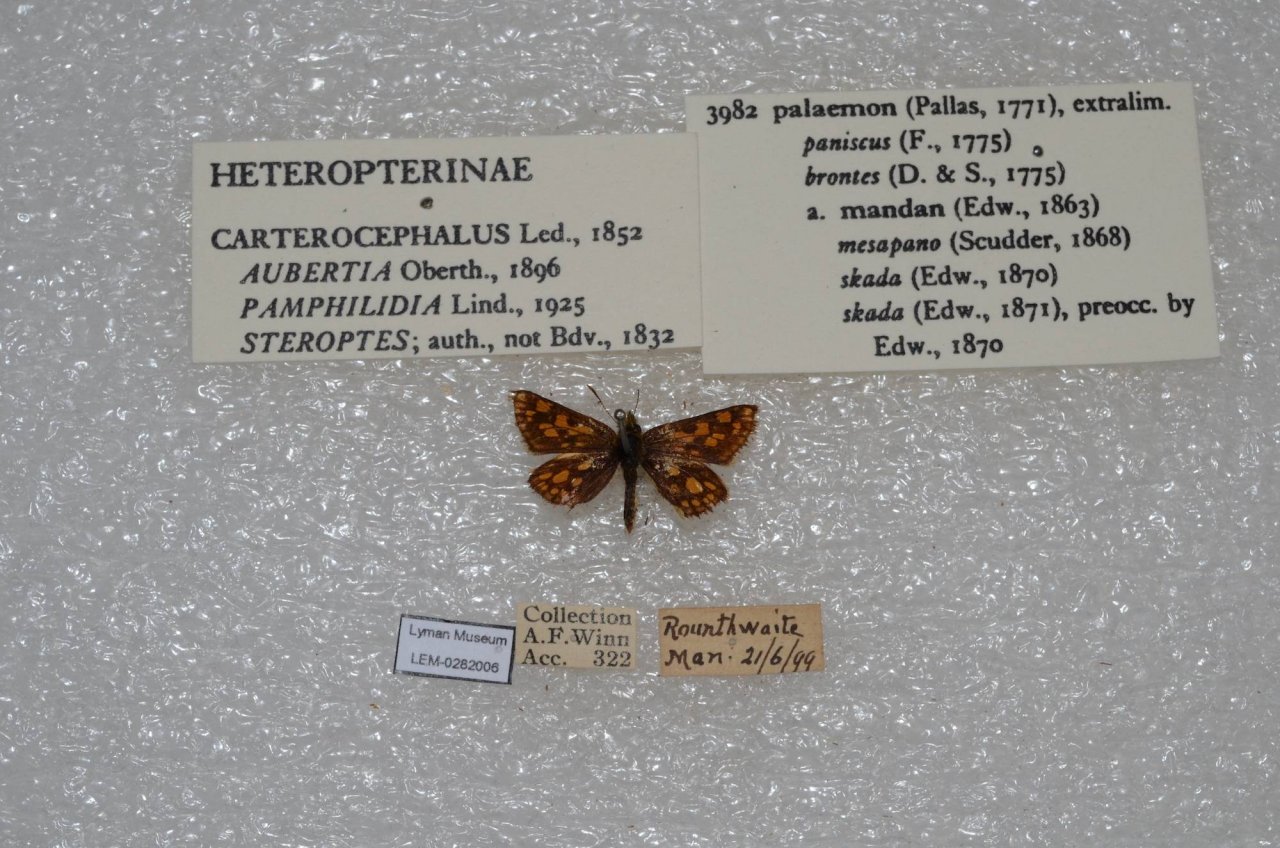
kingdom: Animalia
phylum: Arthropoda
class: Insecta
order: Lepidoptera
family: Hesperiidae
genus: Carterocephalus
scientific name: Carterocephalus palaemon
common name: Chequered Skipper
